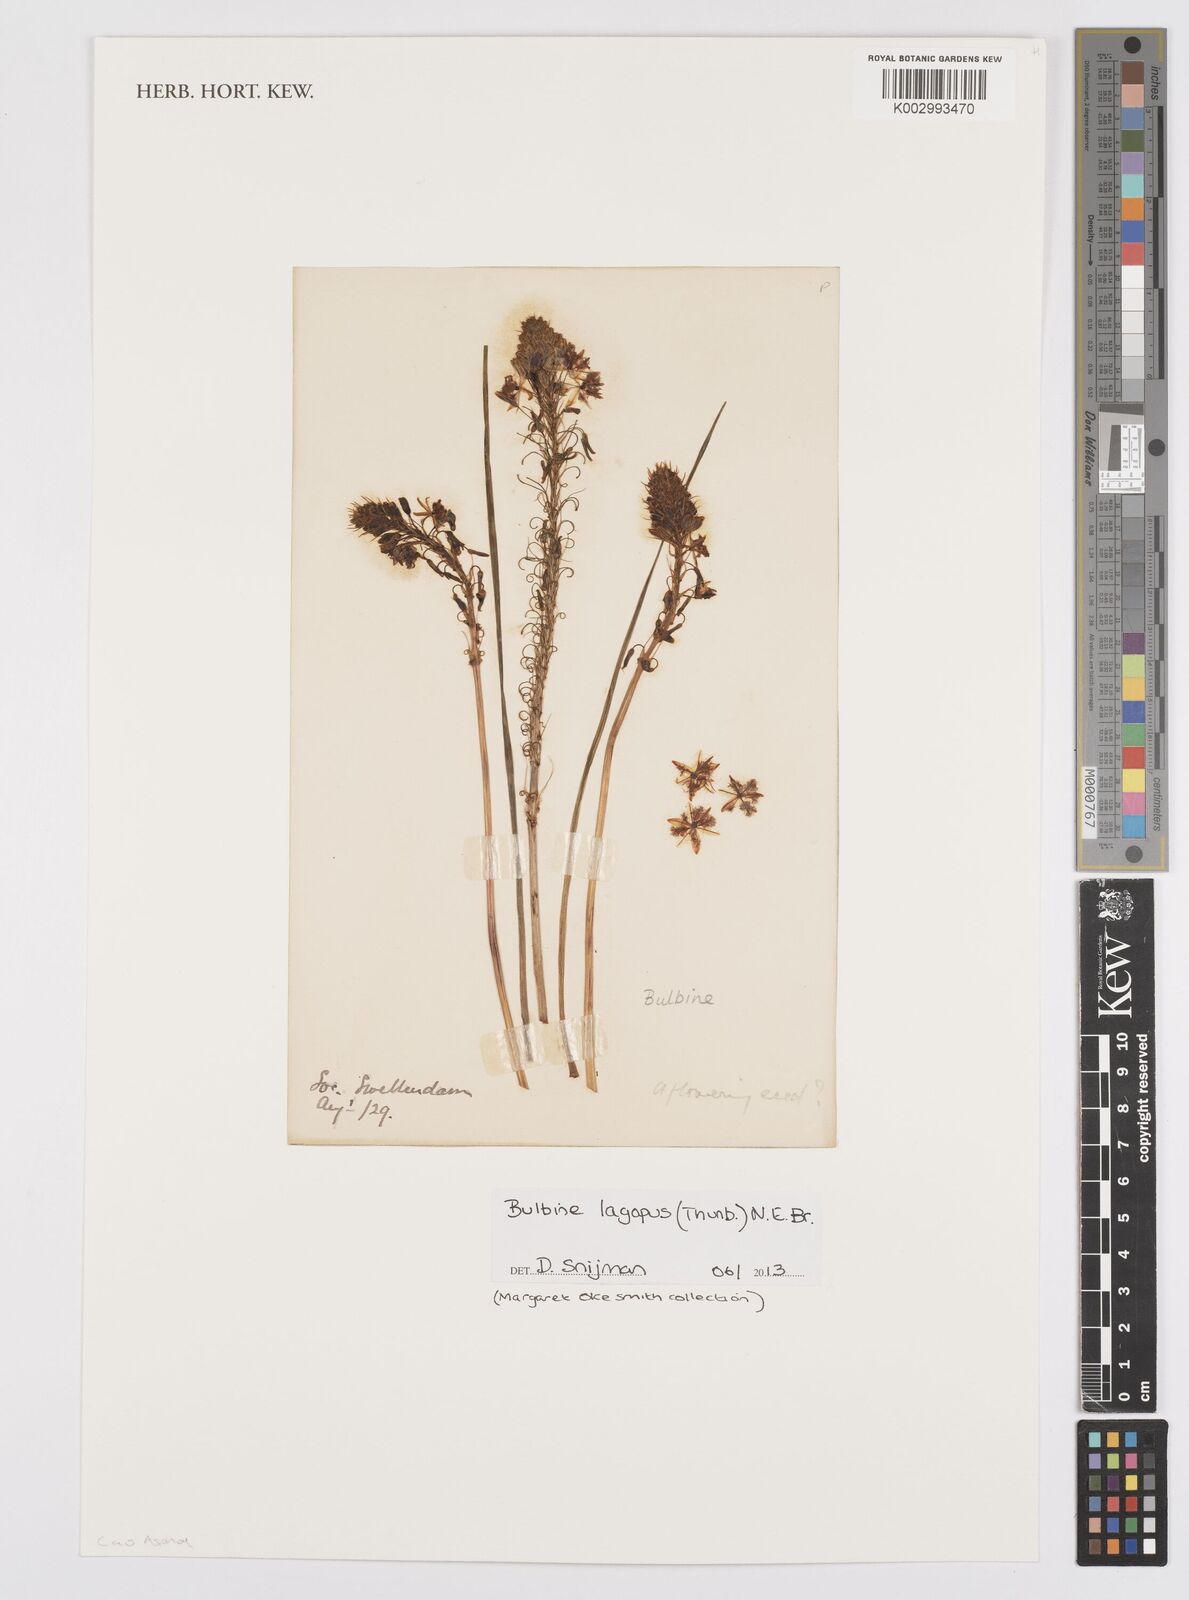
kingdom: Plantae
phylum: Tracheophyta
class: Liliopsida
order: Asparagales
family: Asphodelaceae
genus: Bulbine
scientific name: Bulbine lagopus
